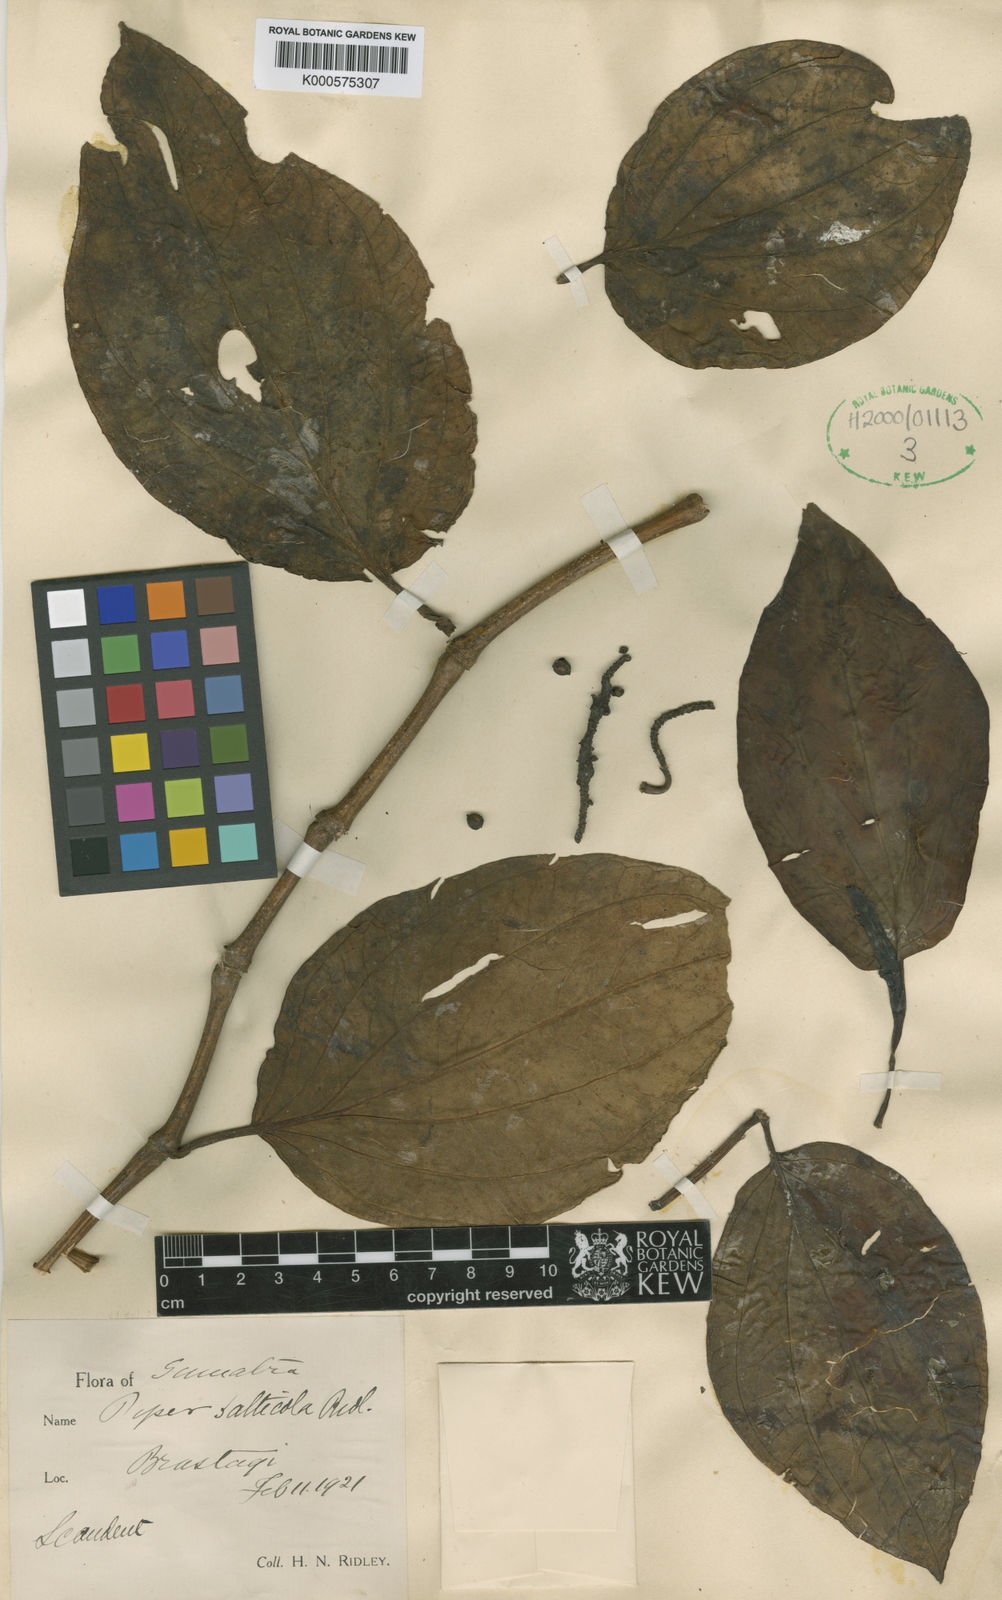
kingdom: Plantae
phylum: Tracheophyta
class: Magnoliopsida
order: Piperales
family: Piperaceae
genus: Piper
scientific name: Piper quinqueangulatum
